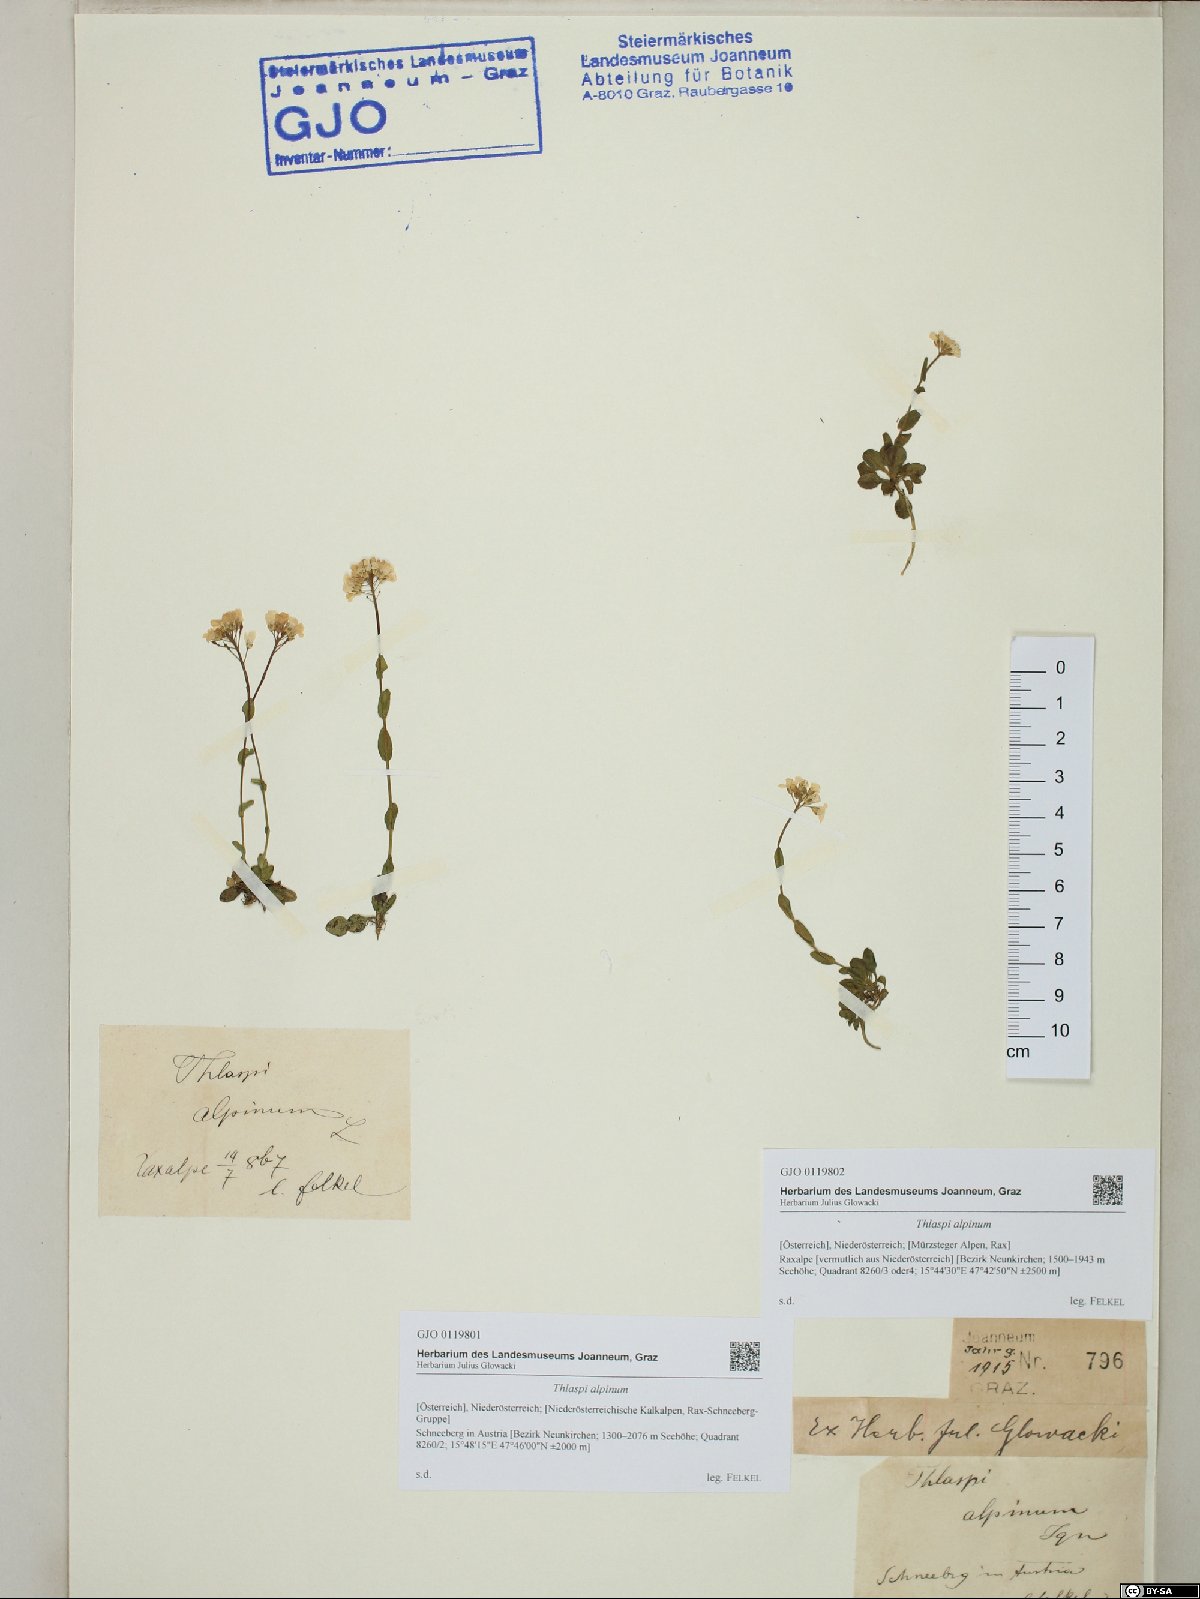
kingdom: Plantae
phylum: Tracheophyta
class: Magnoliopsida
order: Brassicales
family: Brassicaceae
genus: Noccaea
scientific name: Noccaea alpestris
